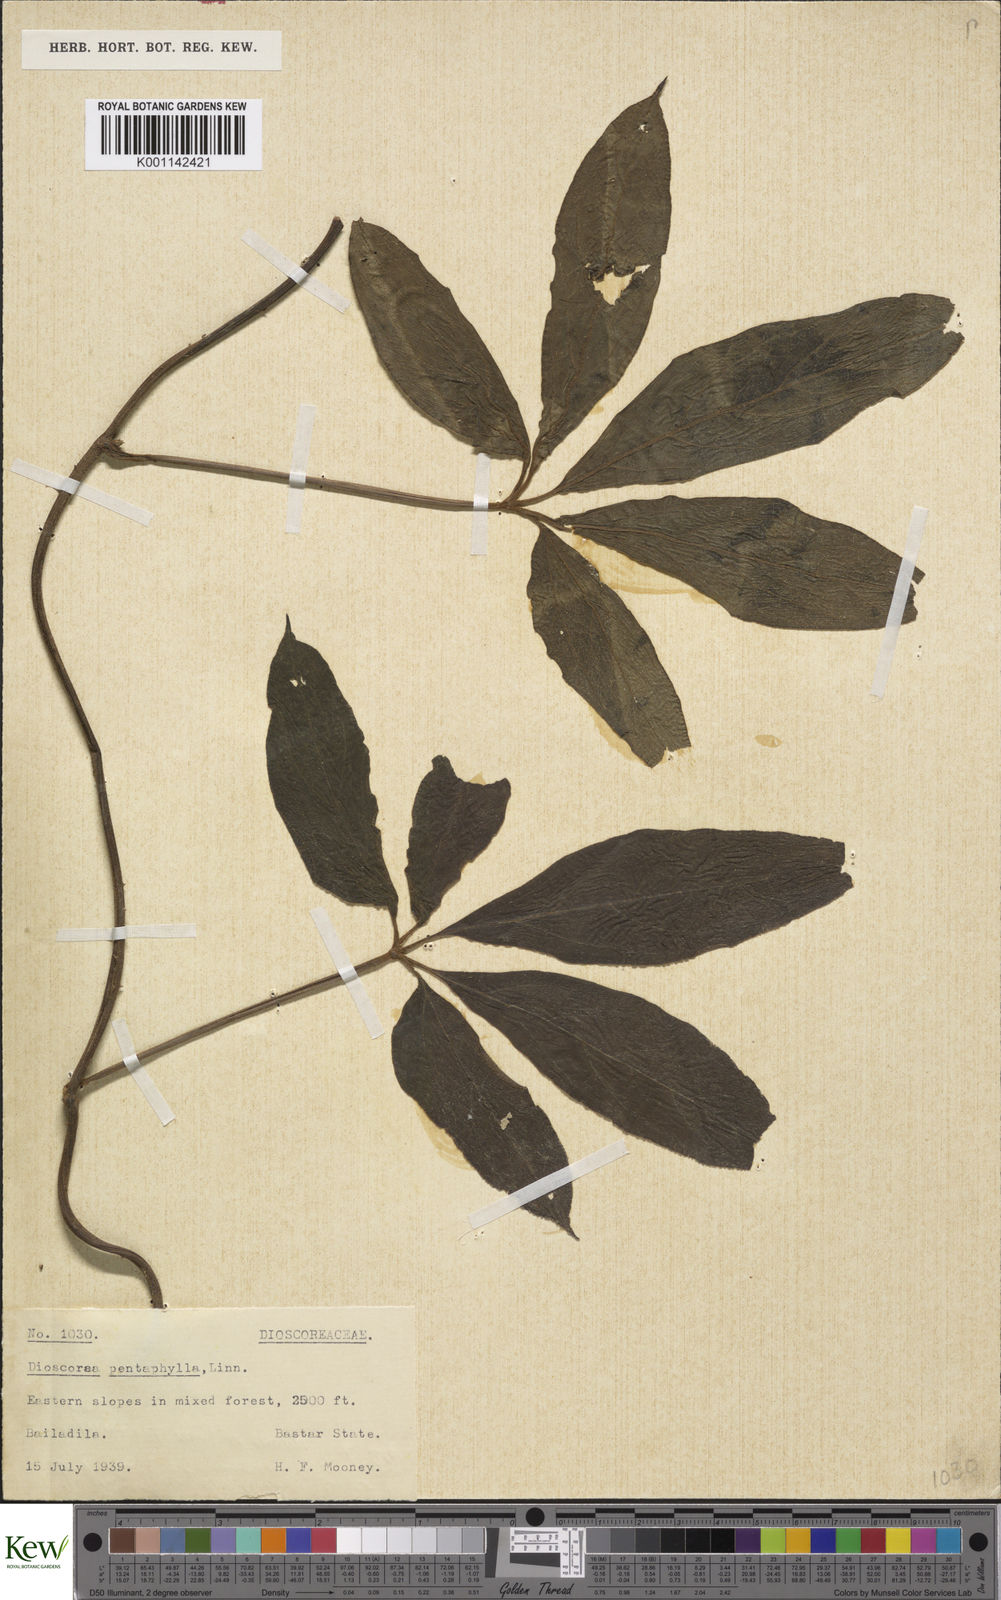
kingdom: Plantae
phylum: Tracheophyta
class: Liliopsida
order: Dioscoreales
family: Dioscoreaceae
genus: Dioscorea
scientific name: Dioscorea pentaphylla
